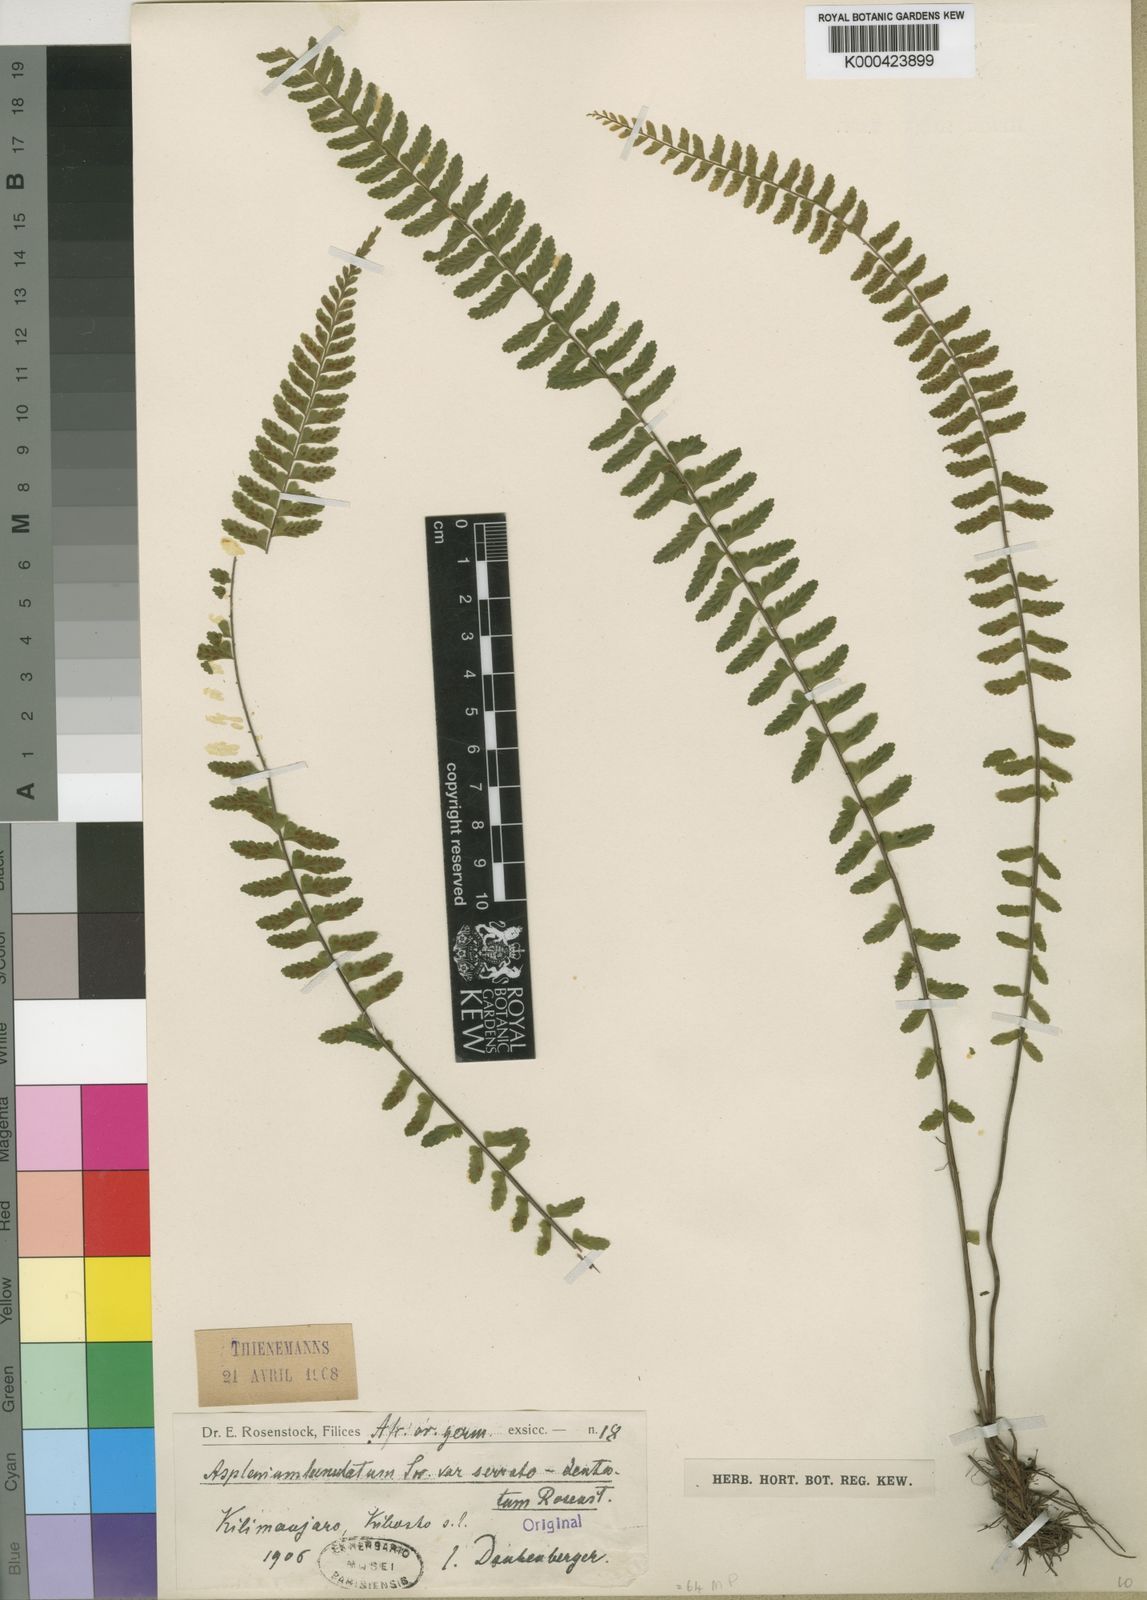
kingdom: Plantae
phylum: Tracheophyta
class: Polypodiopsida
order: Polypodiales
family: Aspleniaceae
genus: Asplenium
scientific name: Asplenium erectum
